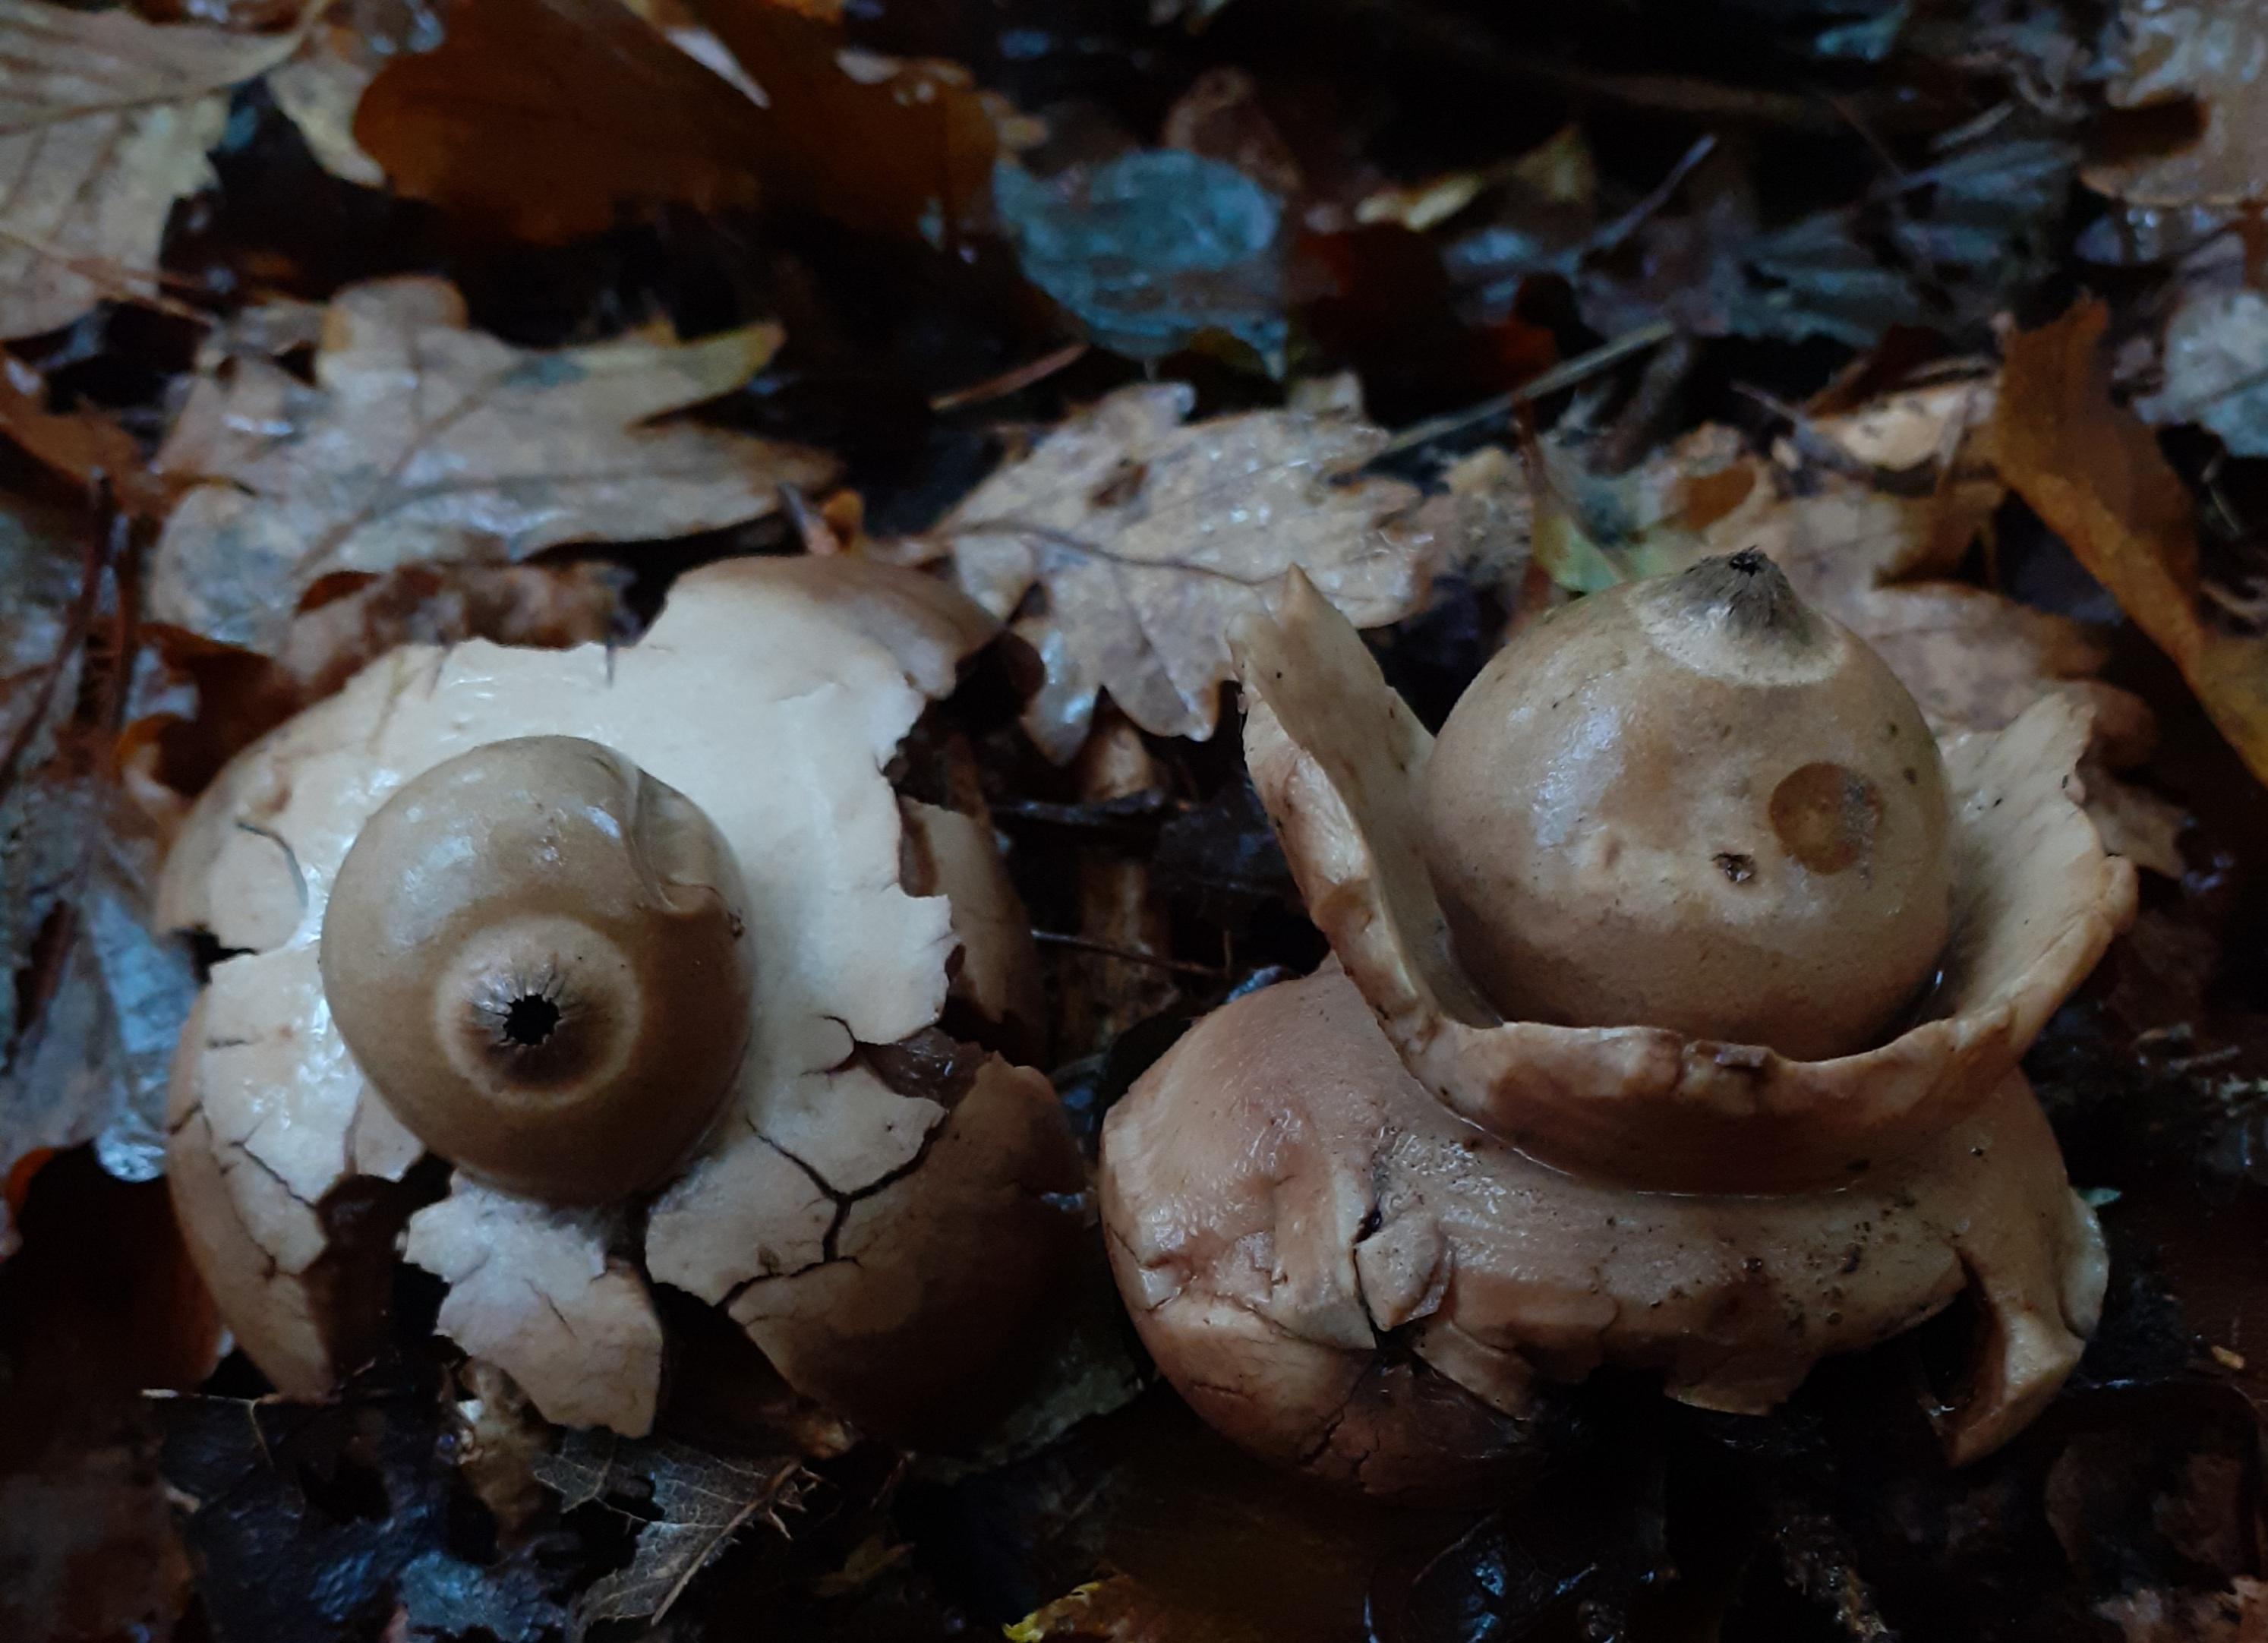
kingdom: Fungi
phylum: Basidiomycota
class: Agaricomycetes
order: Geastrales
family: Geastraceae
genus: Geastrum
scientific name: Geastrum michelianum
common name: kødet stjernebold
